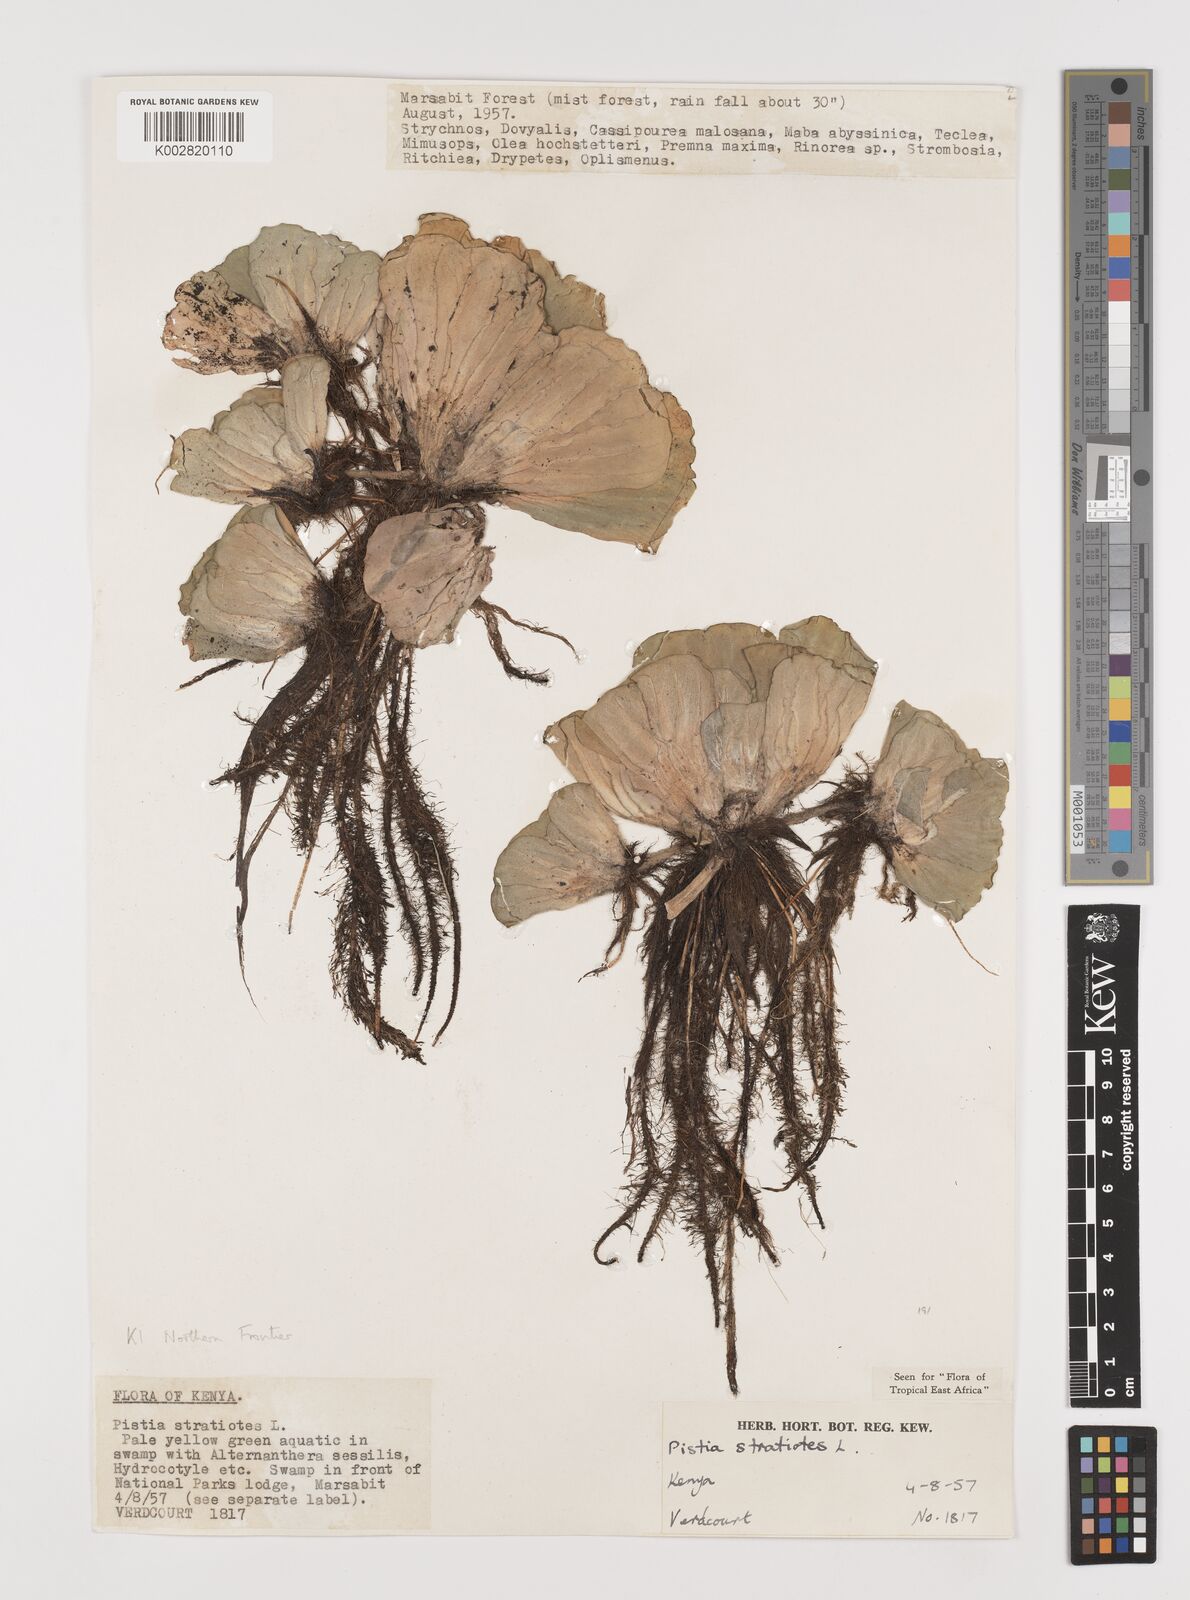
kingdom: Plantae
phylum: Tracheophyta
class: Liliopsida
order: Alismatales
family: Araceae
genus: Pistia
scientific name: Pistia stratiotes
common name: Water lettuce
